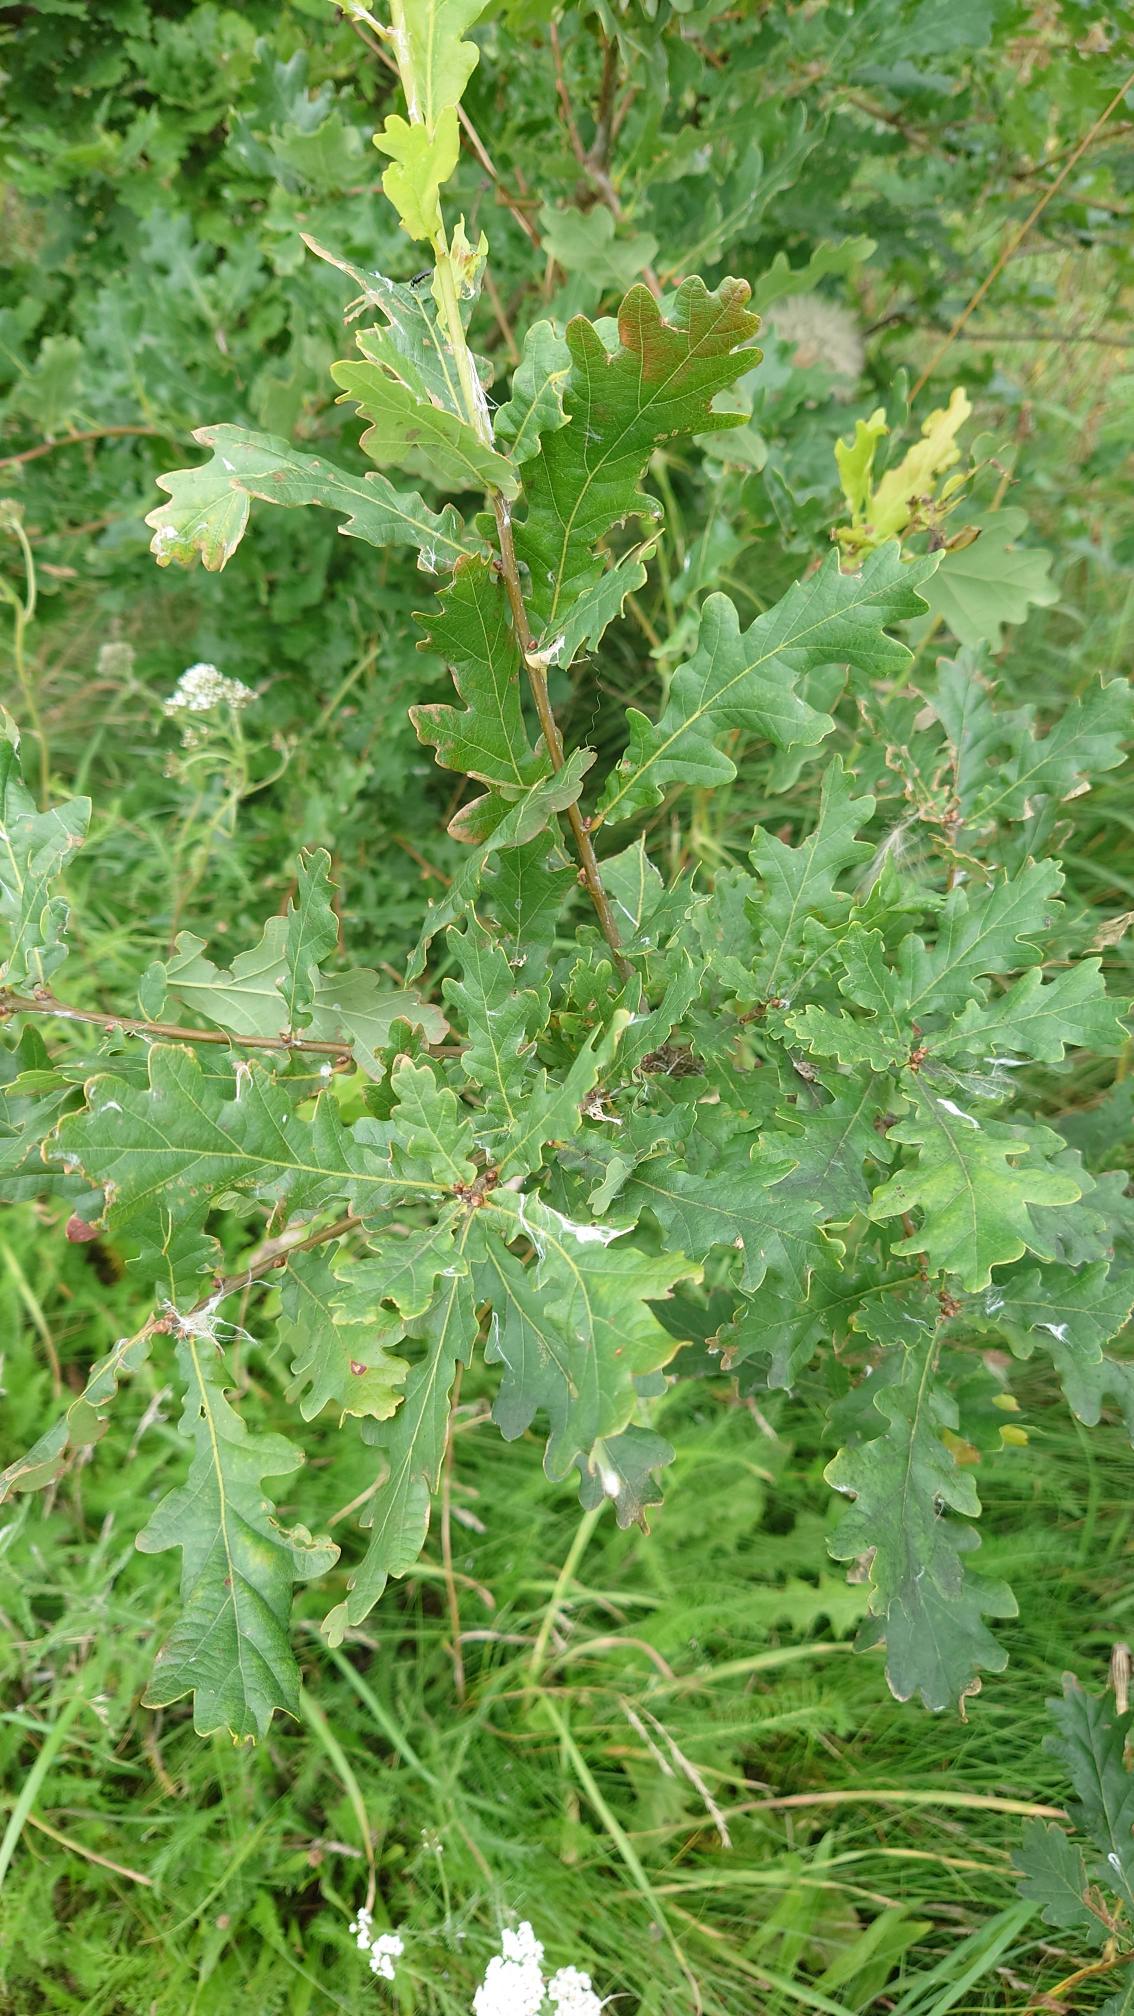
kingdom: Plantae
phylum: Tracheophyta
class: Magnoliopsida
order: Fagales
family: Fagaceae
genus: Quercus
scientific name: Quercus robur
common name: Stilk-eg/almindelig eg
